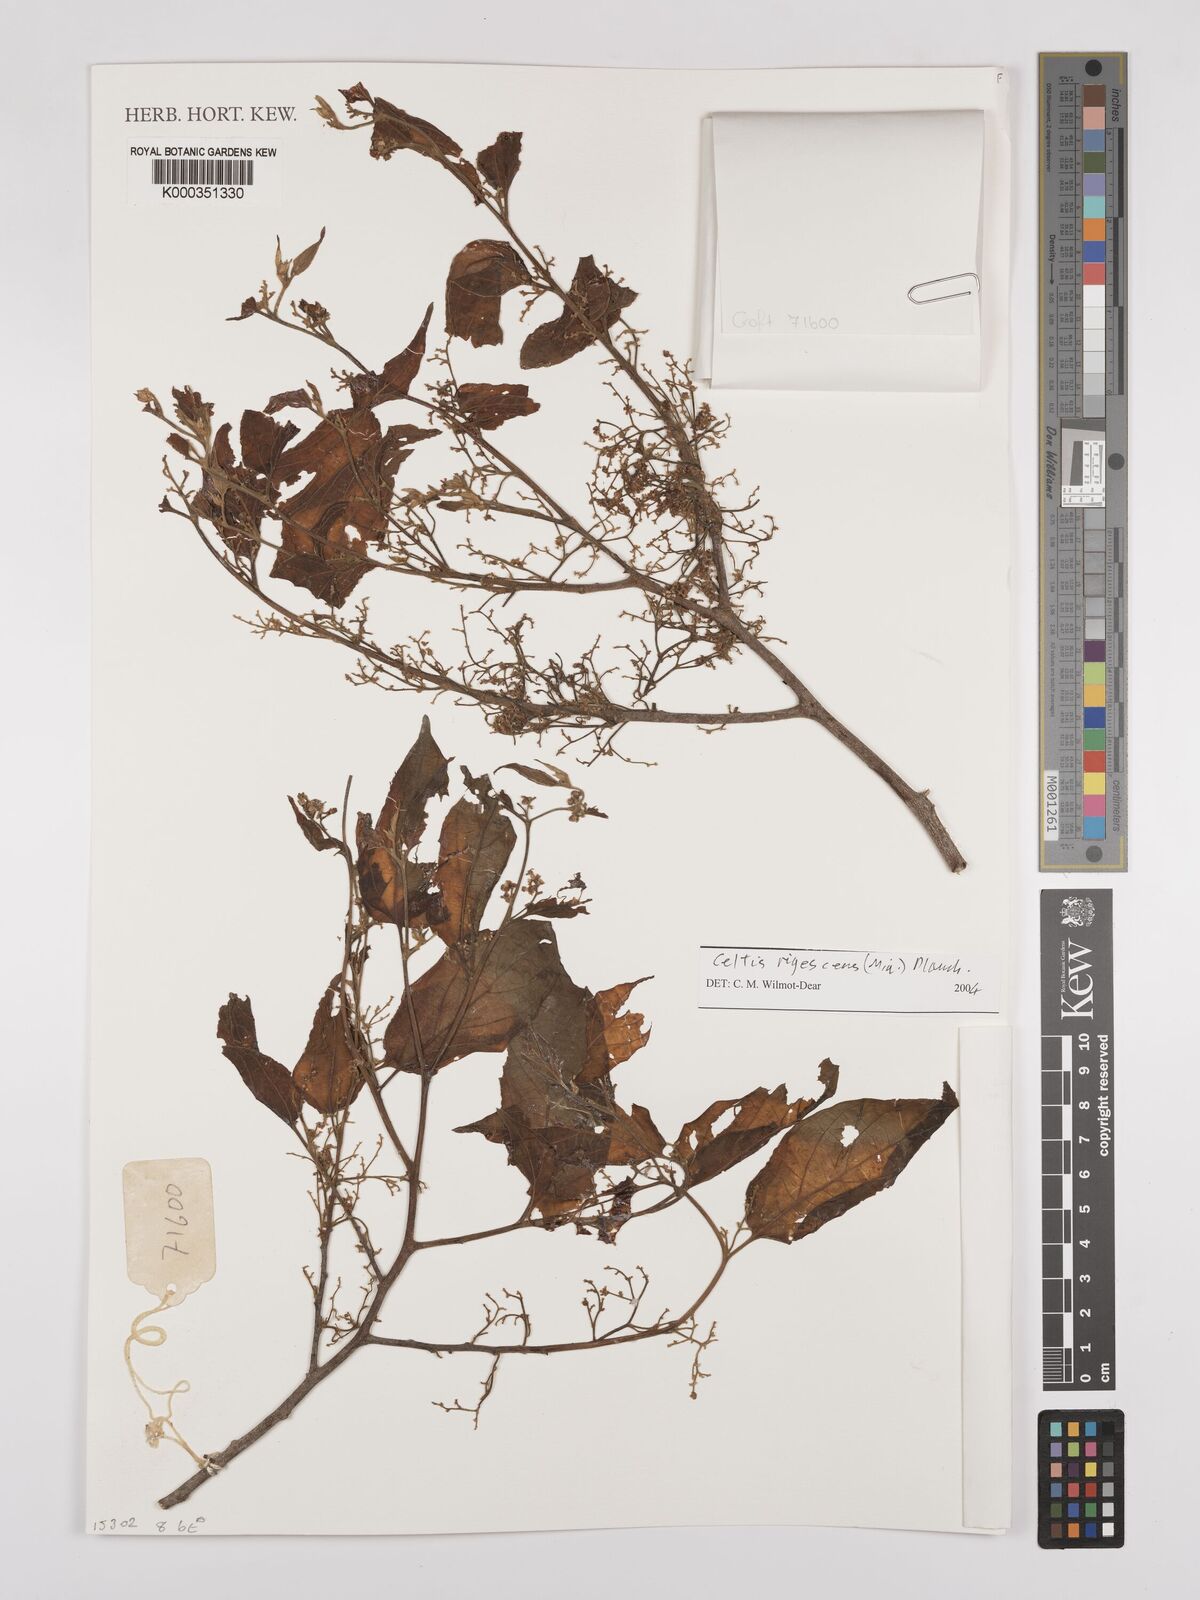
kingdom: Plantae
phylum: Tracheophyta
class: Magnoliopsida
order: Rosales
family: Cannabaceae
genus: Celtis
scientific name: Celtis rigescens
